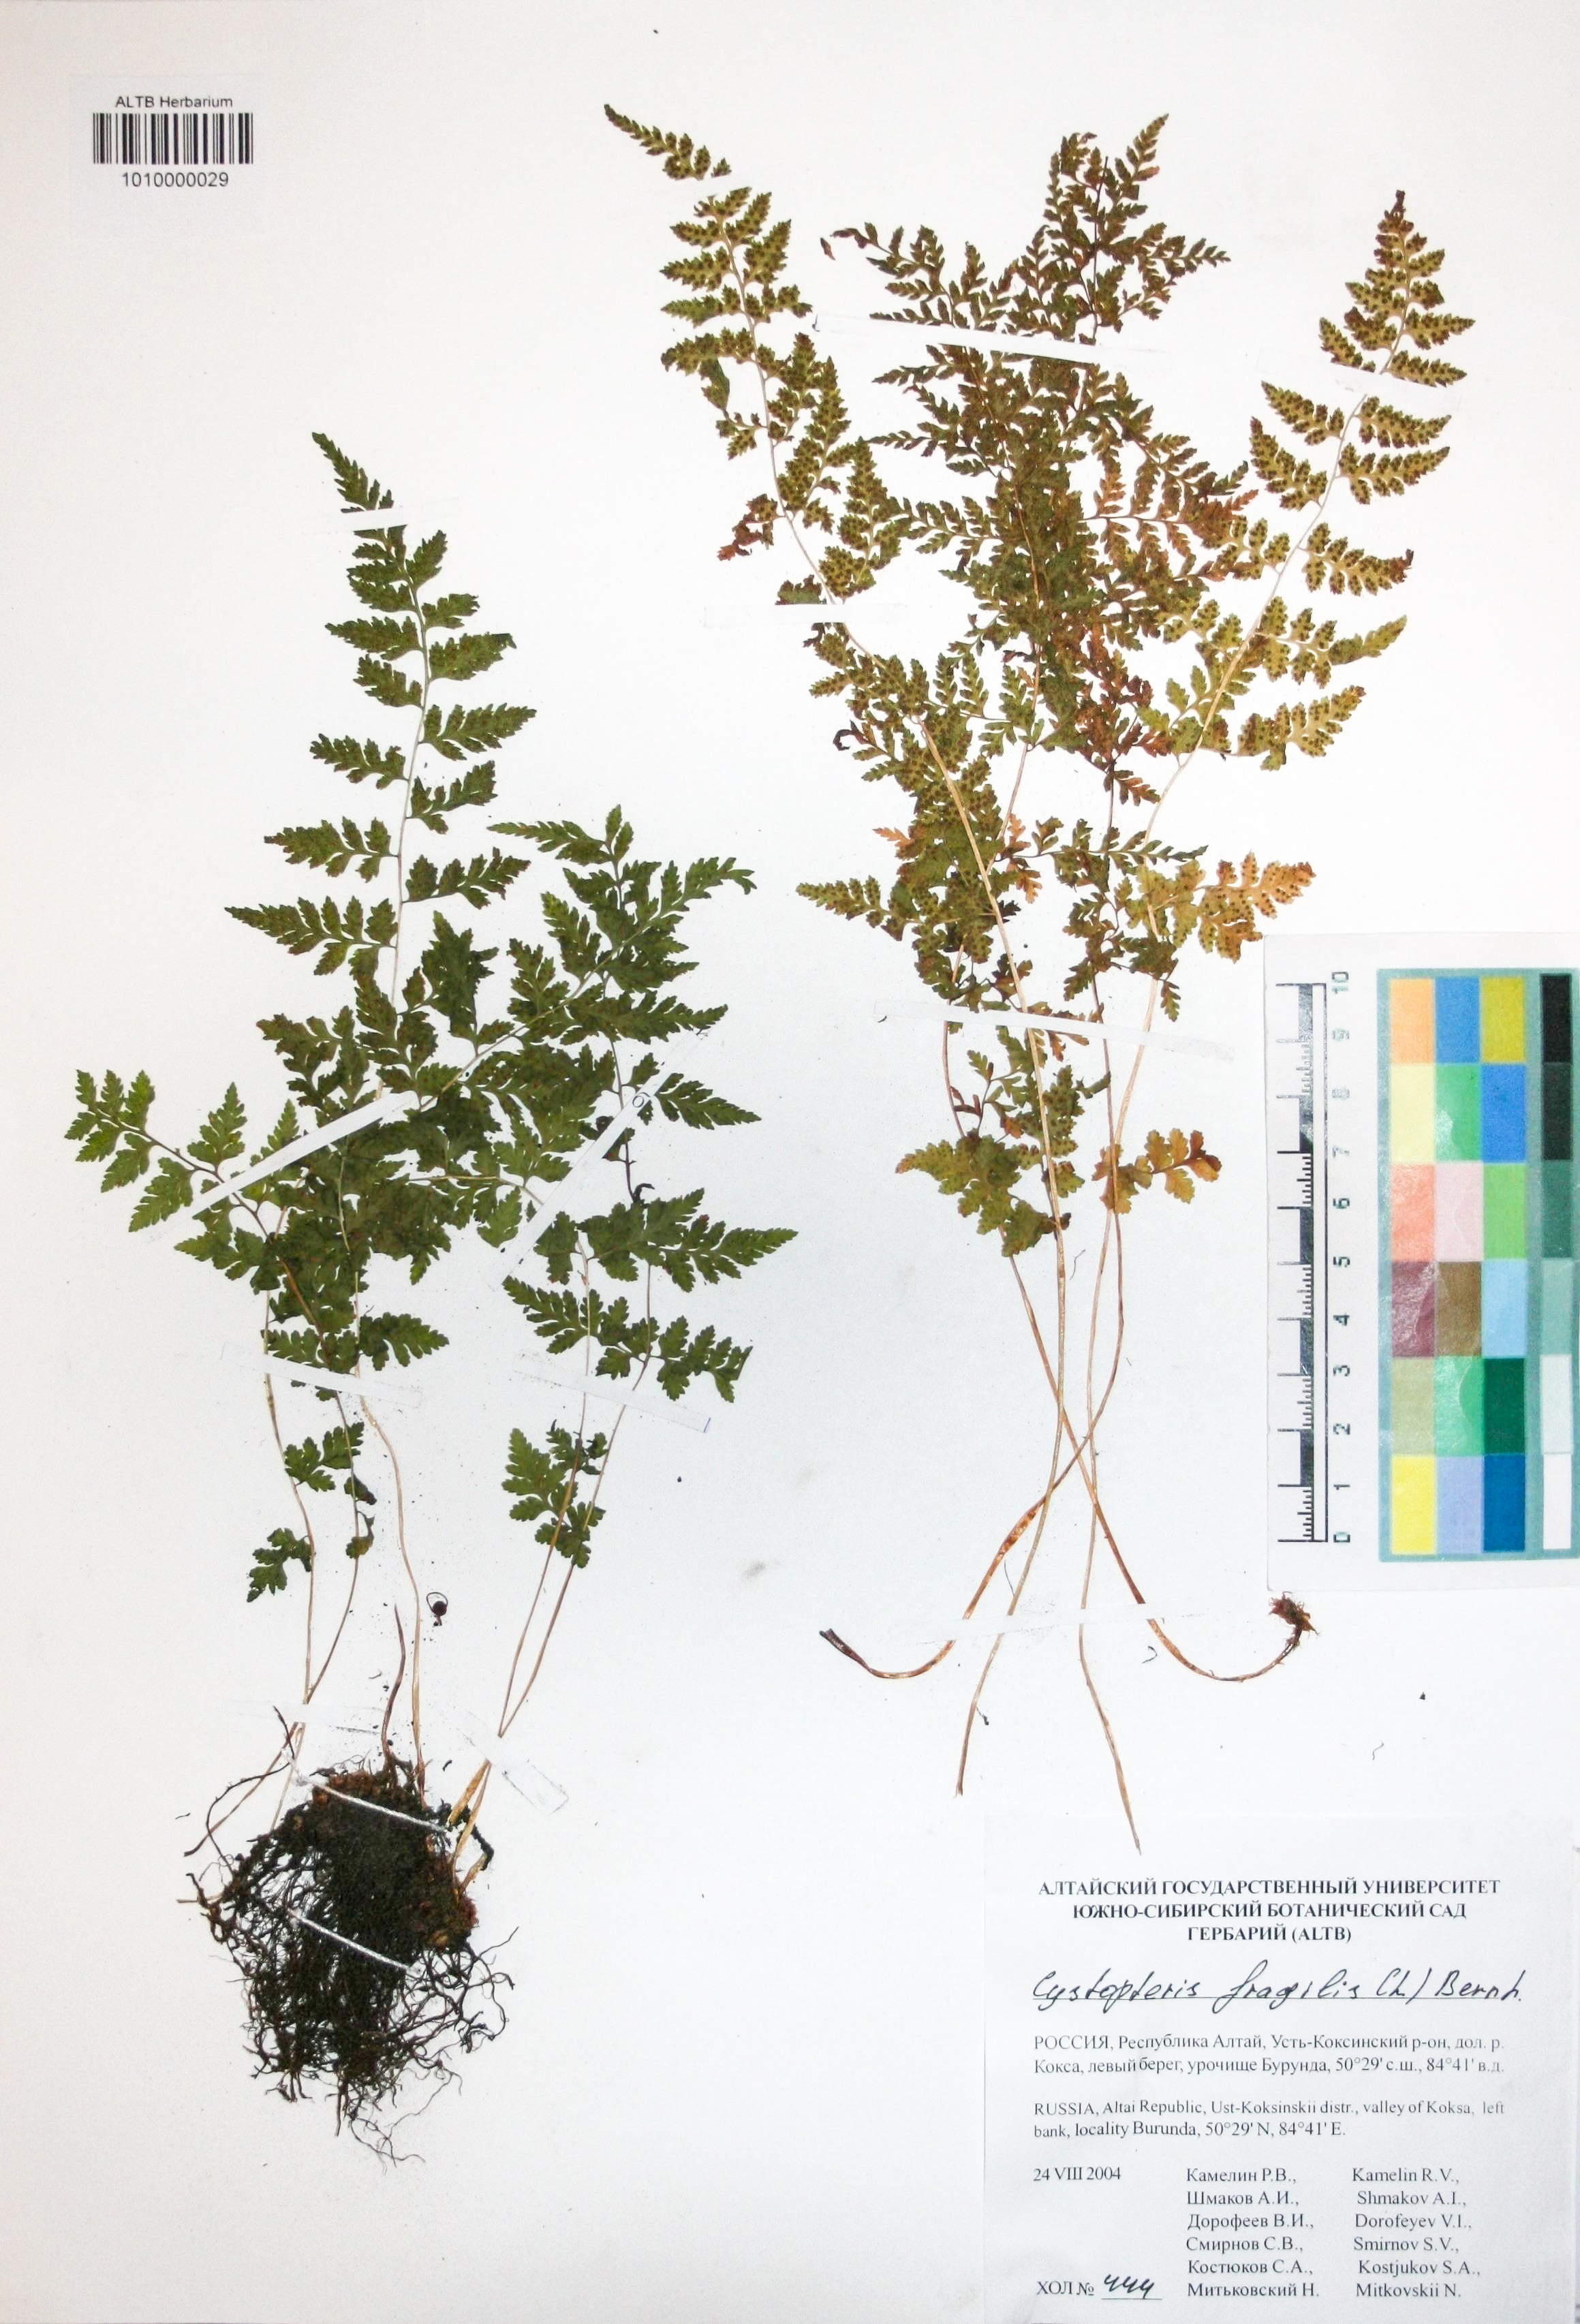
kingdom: Plantae
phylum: Tracheophyta
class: Polypodiopsida
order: Polypodiales
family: Cystopteridaceae
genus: Cystopteris
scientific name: Cystopteris fragilis
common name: Brittle bladder fern
